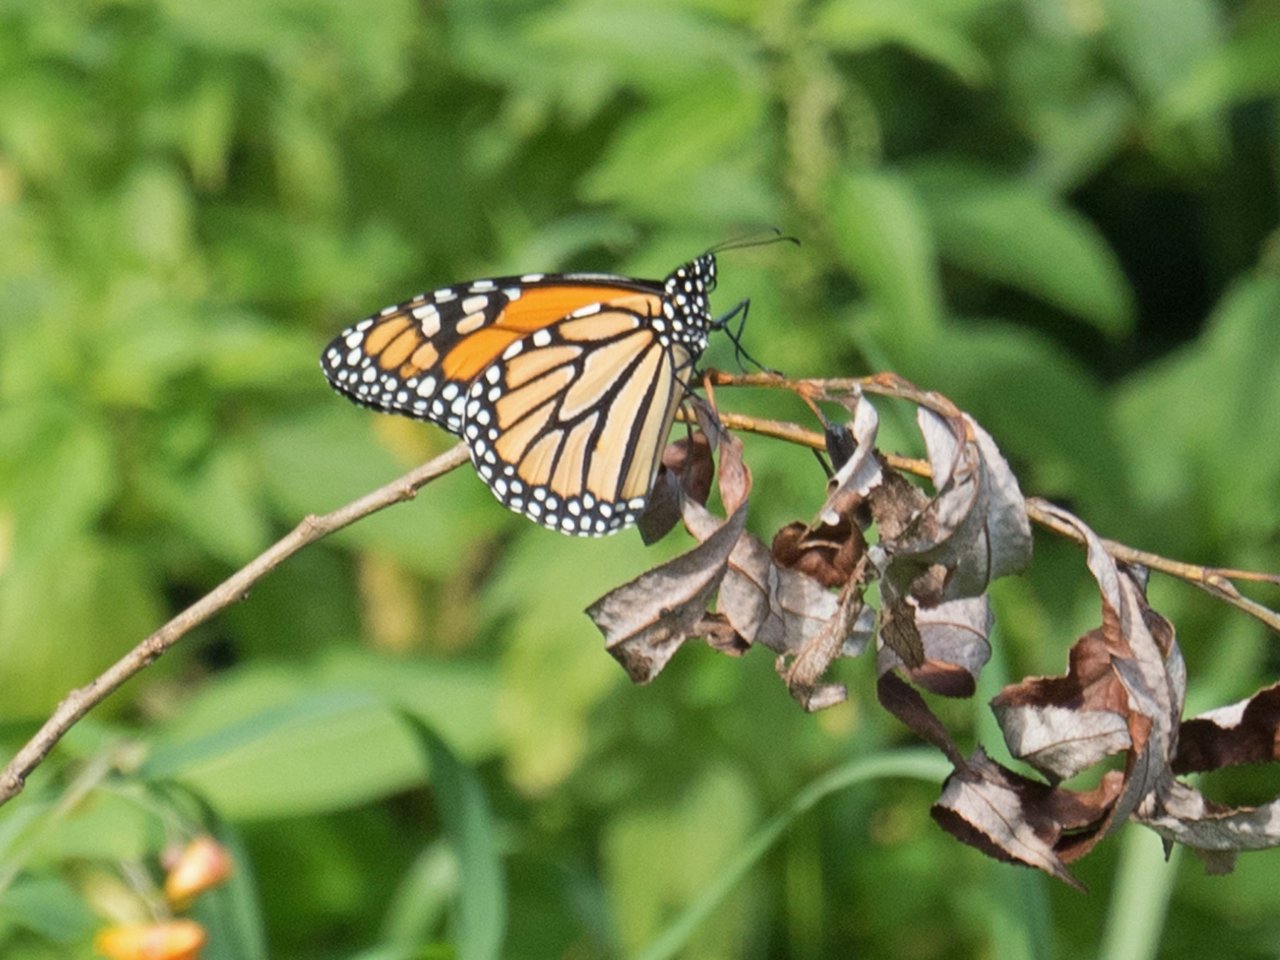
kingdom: Animalia
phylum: Arthropoda
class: Insecta
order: Lepidoptera
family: Nymphalidae
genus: Danaus
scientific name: Danaus plexippus
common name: Monarch
